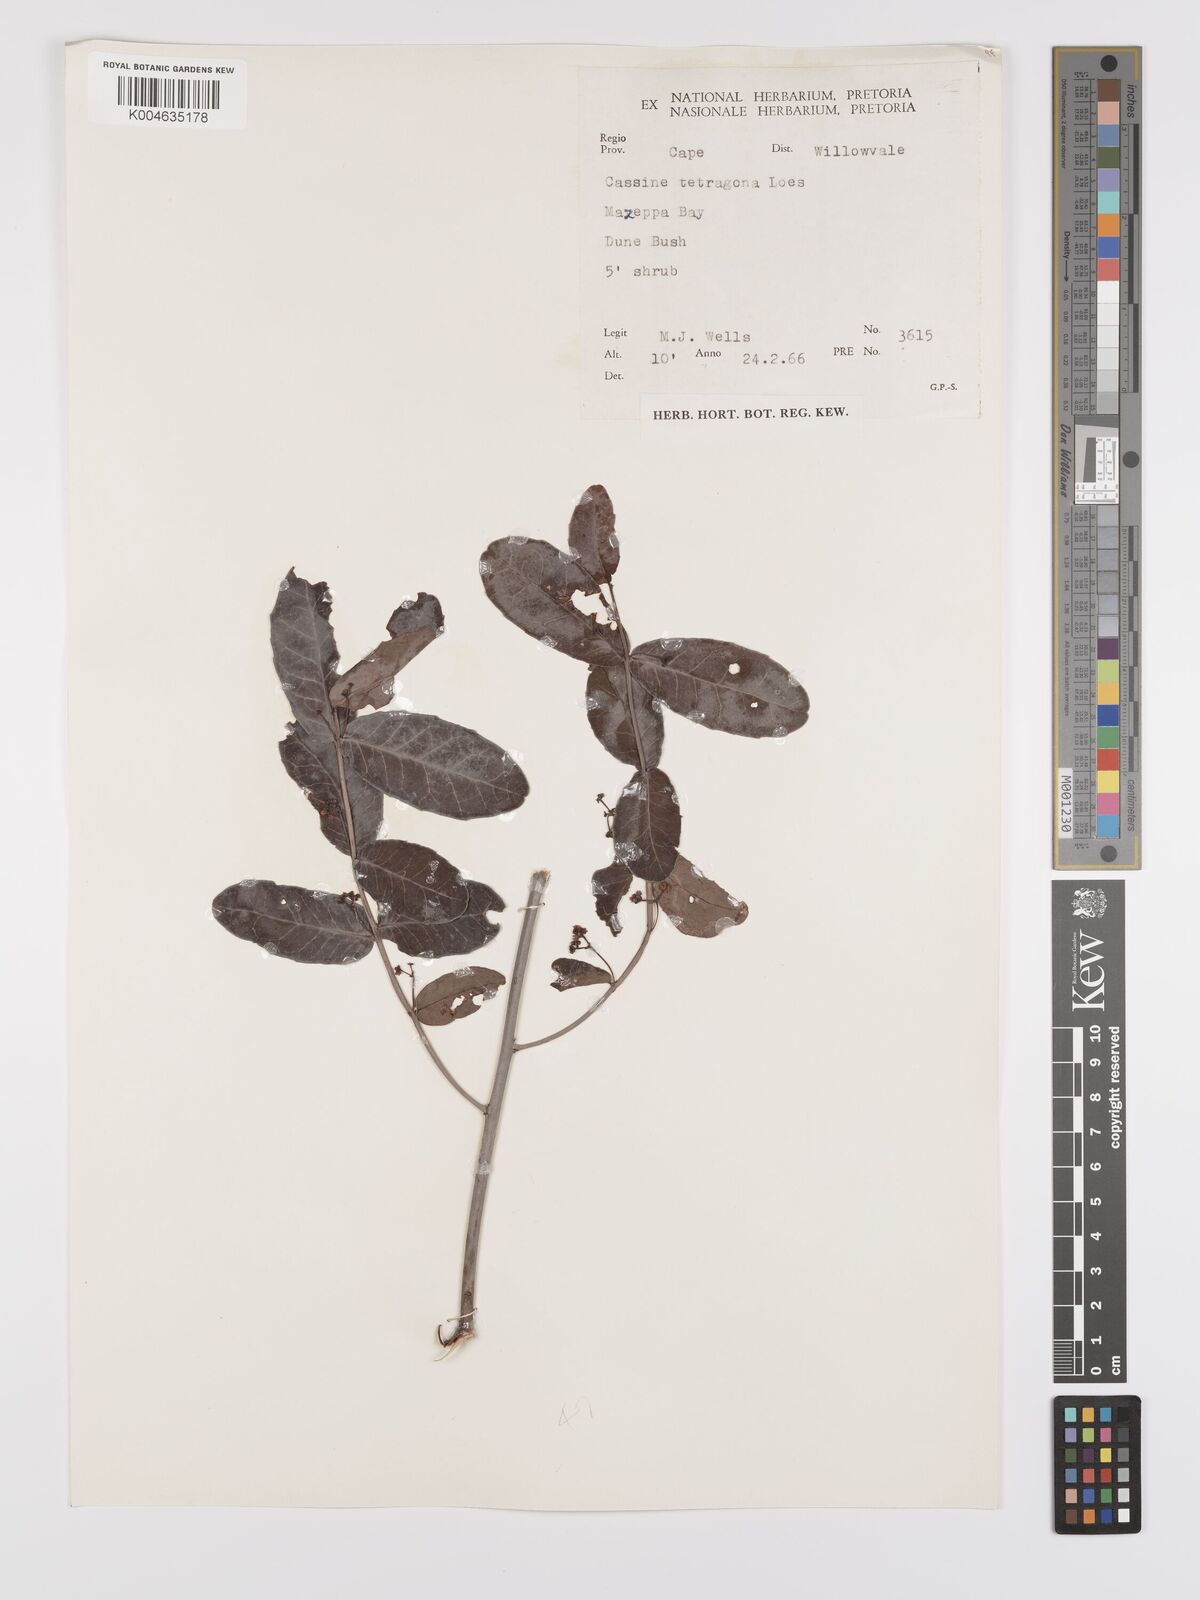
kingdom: Plantae
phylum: Tracheophyta
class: Magnoliopsida
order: Celastrales
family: Celastraceae
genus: Lauridia
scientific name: Lauridia tetragona
